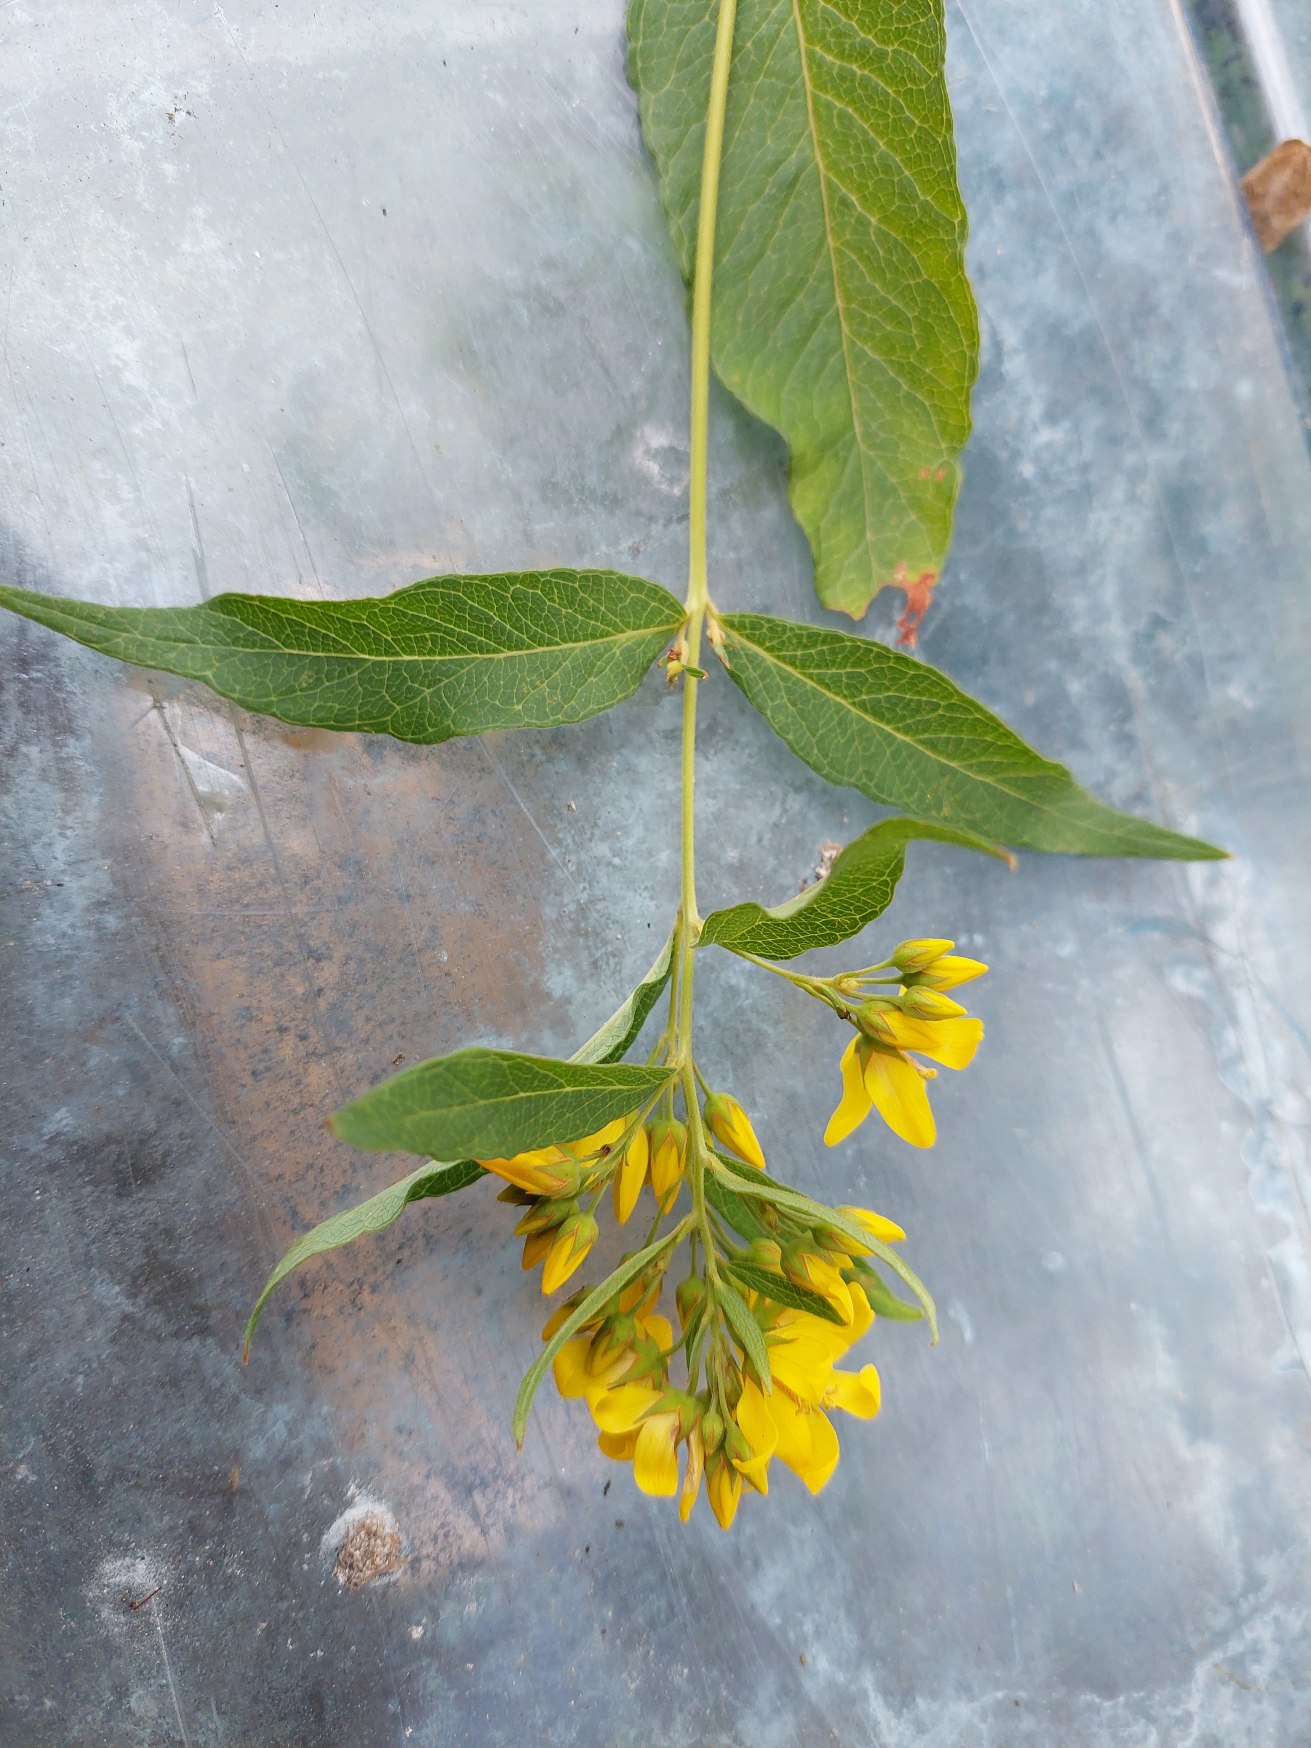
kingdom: Plantae
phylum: Tracheophyta
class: Magnoliopsida
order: Ericales
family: Primulaceae
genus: Lysimachia
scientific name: Lysimachia vulgaris
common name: Almindelig fredløs
